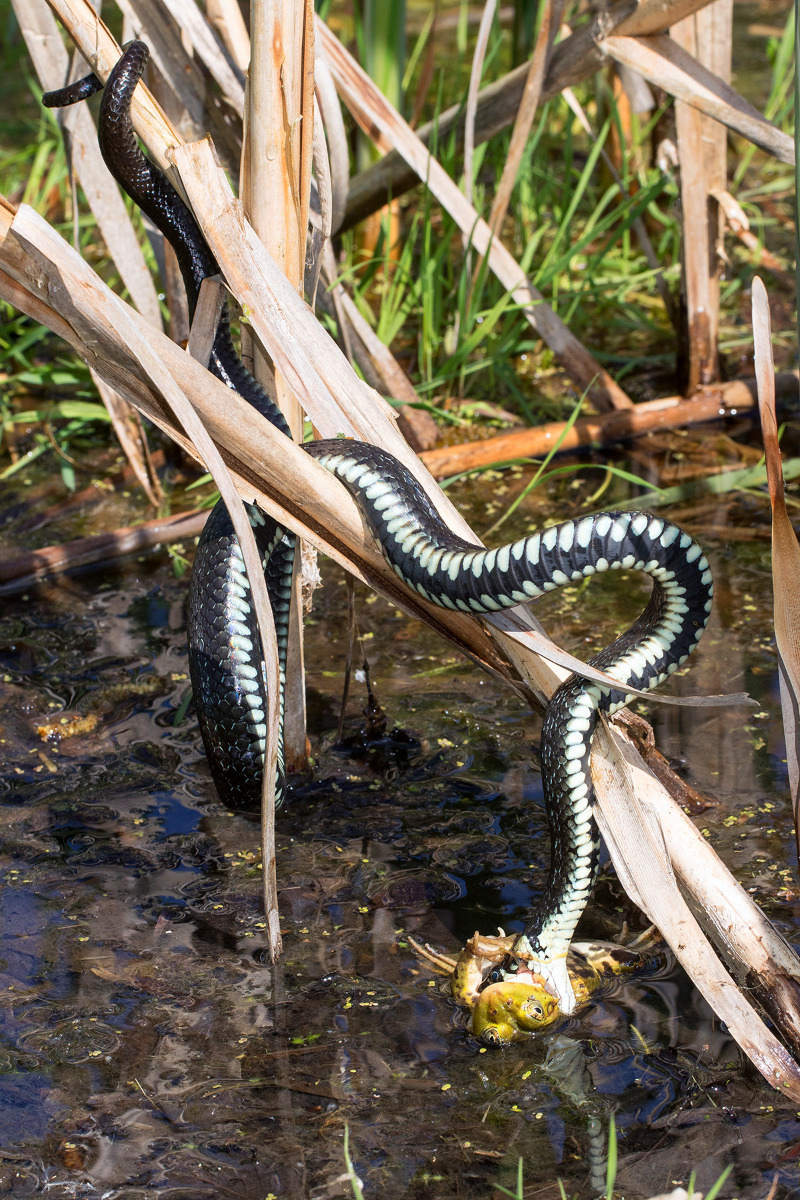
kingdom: Animalia
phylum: Chordata
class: Squamata
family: Colubridae
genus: Natrix
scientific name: Natrix natrix
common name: Snog
